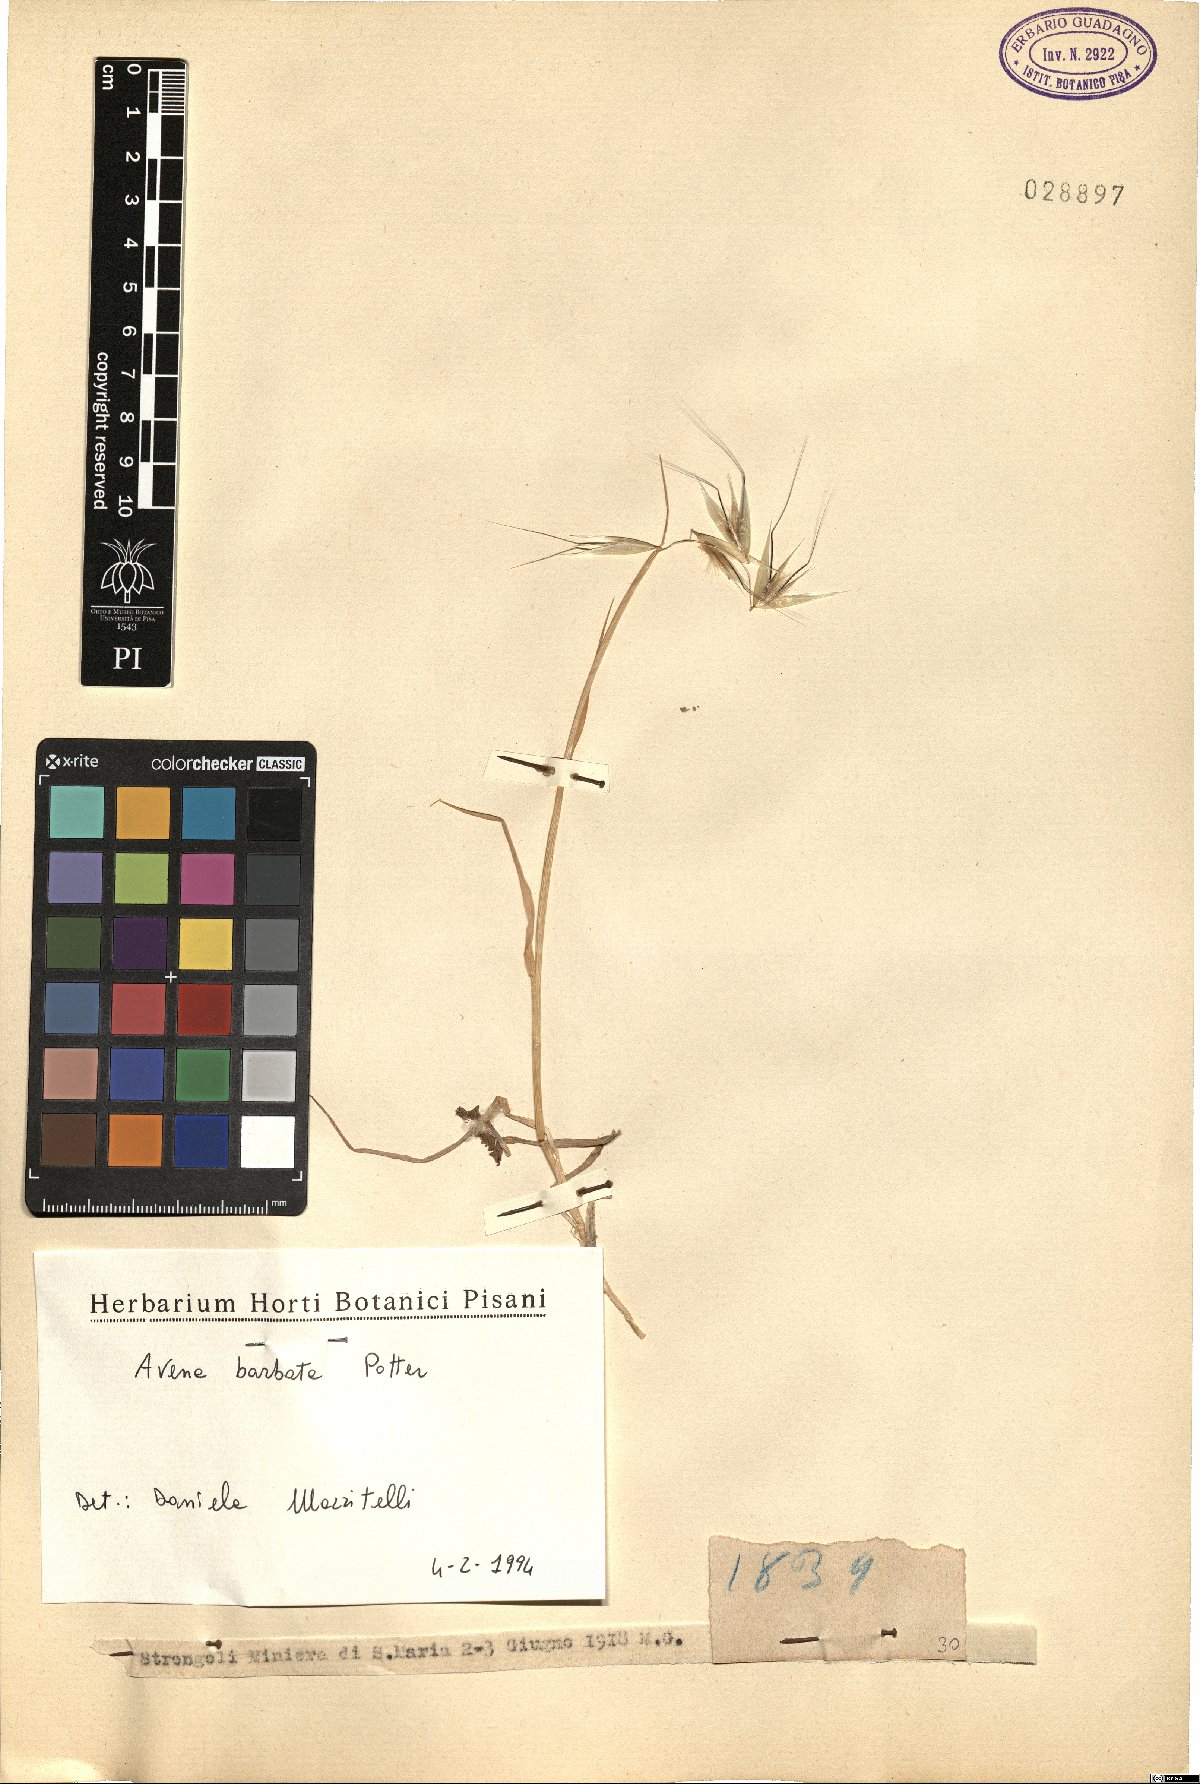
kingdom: Plantae
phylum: Tracheophyta
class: Liliopsida
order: Poales
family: Poaceae
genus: Avena
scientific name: Avena barbata
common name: Slender oat
